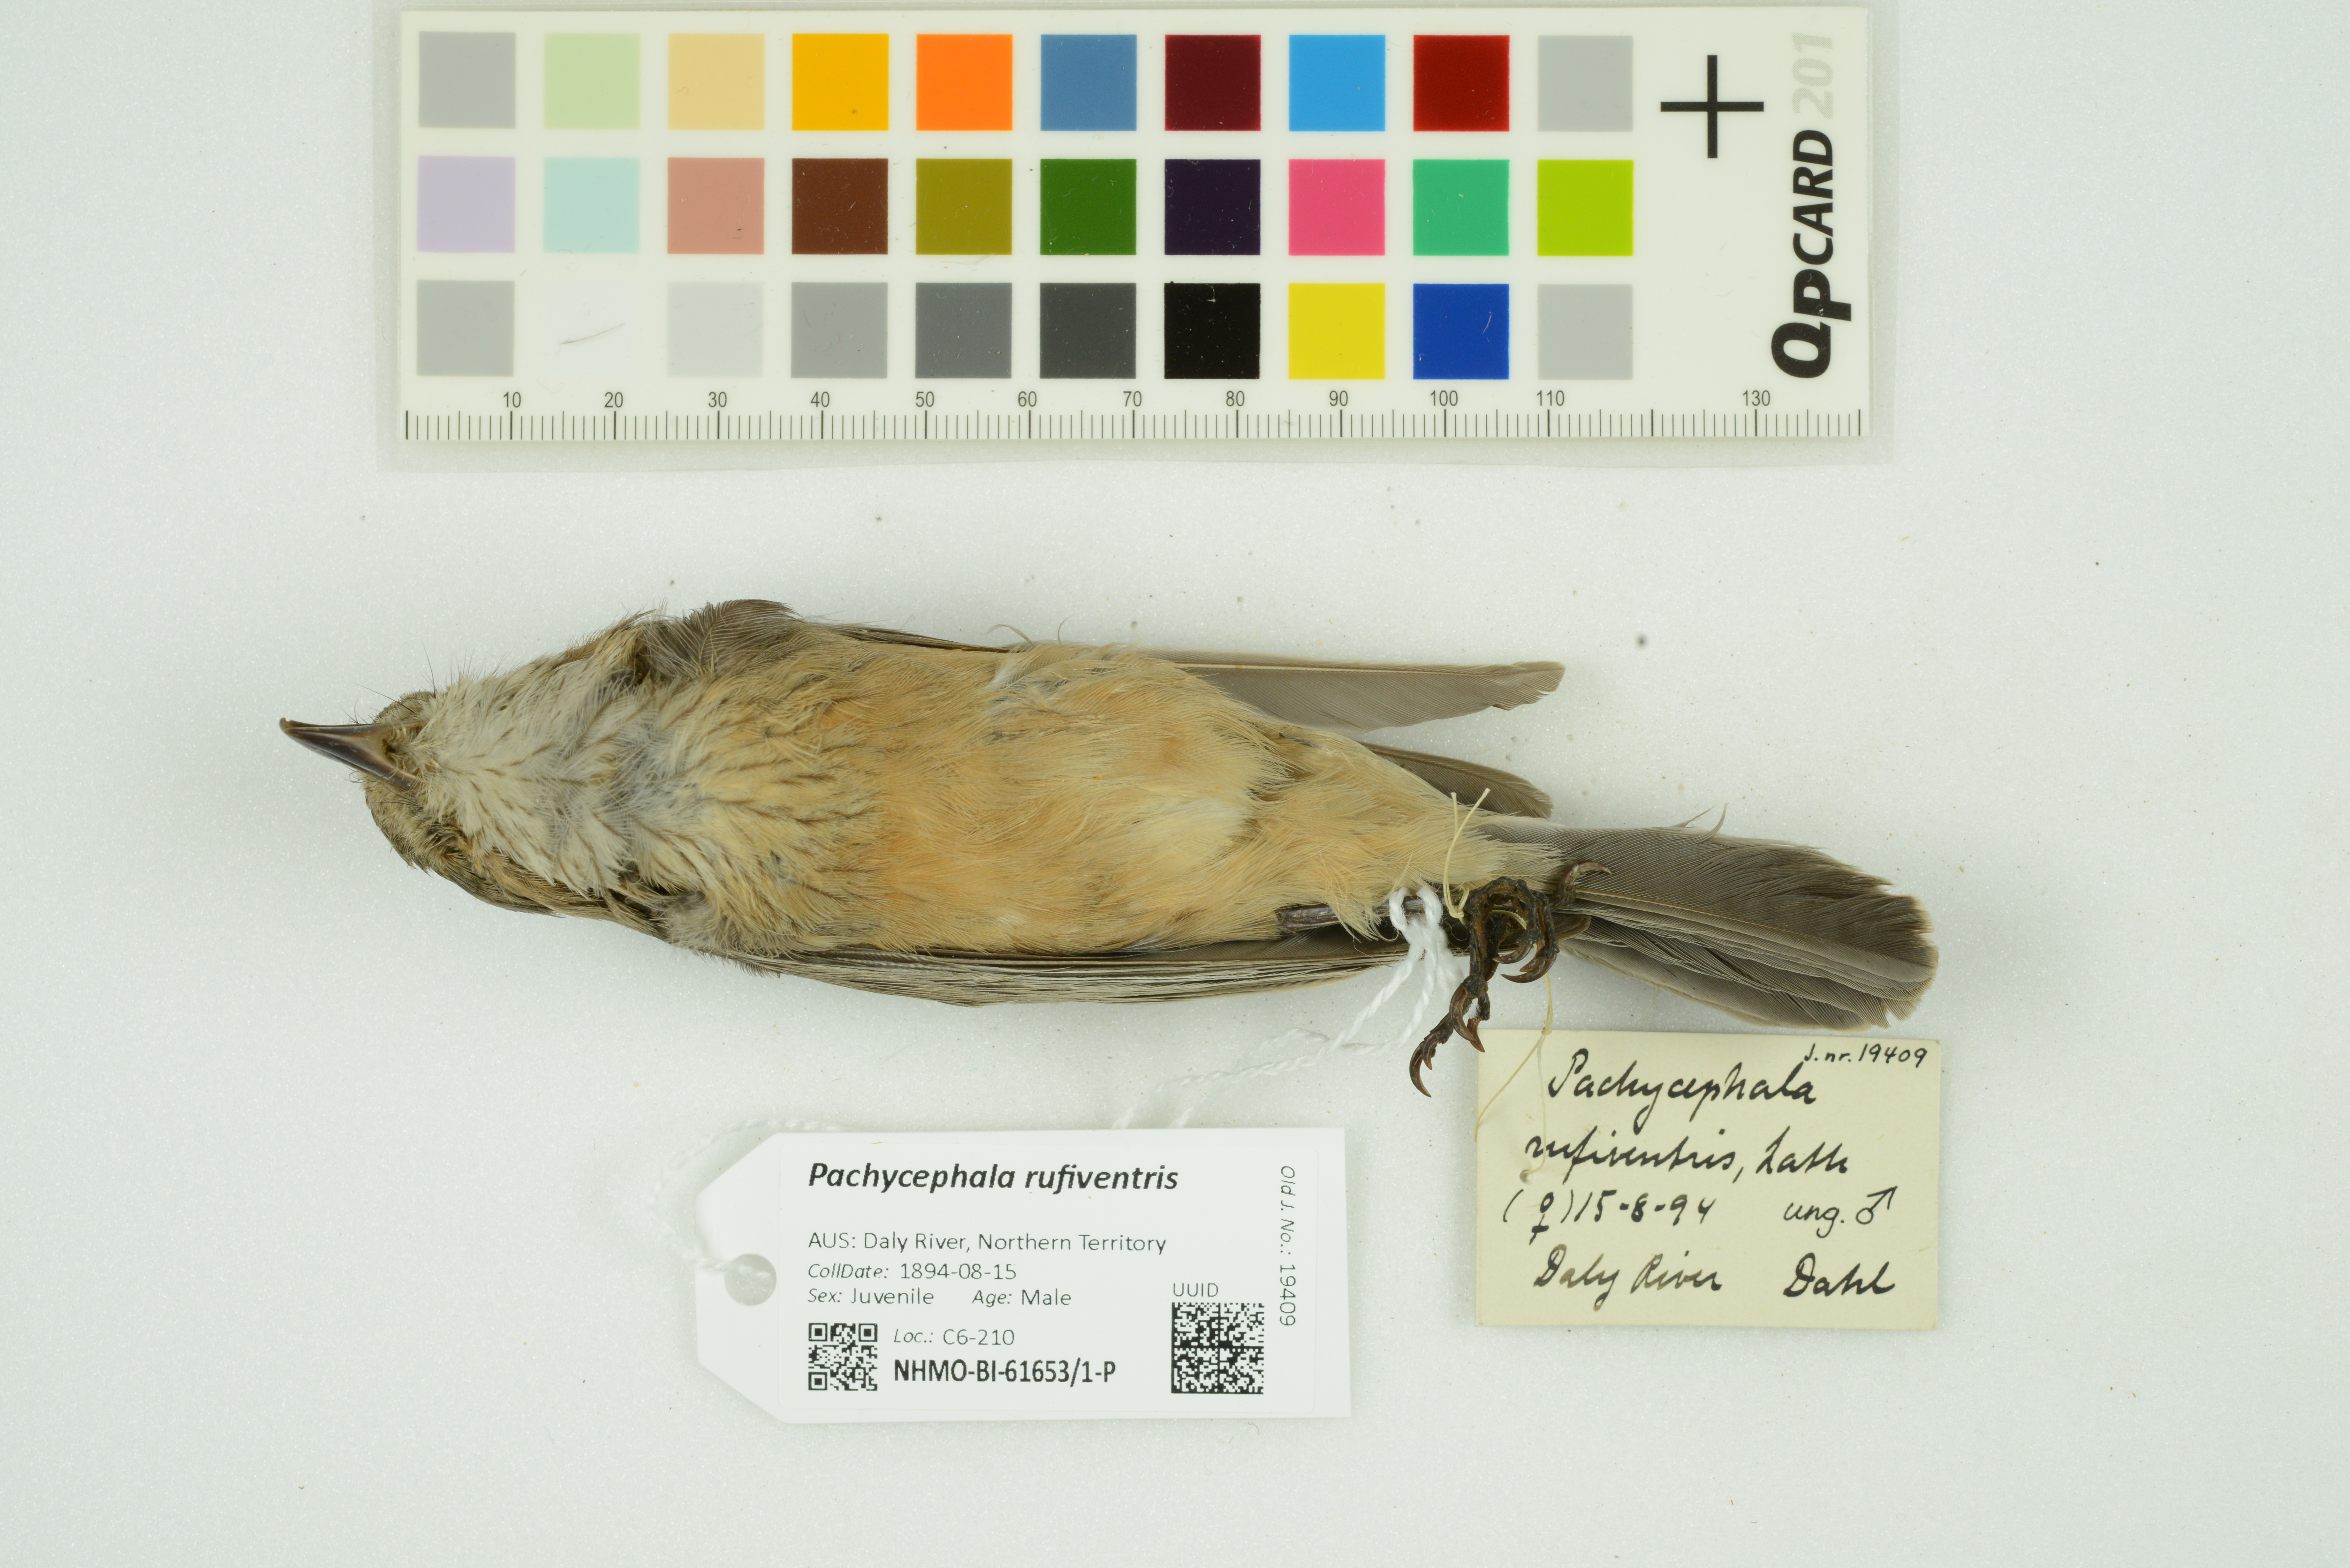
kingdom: Animalia
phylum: Chordata
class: Aves
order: Passeriformes
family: Pachycephalidae
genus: Pachycephala
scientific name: Pachycephala rufiventris
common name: Rufous whistler
